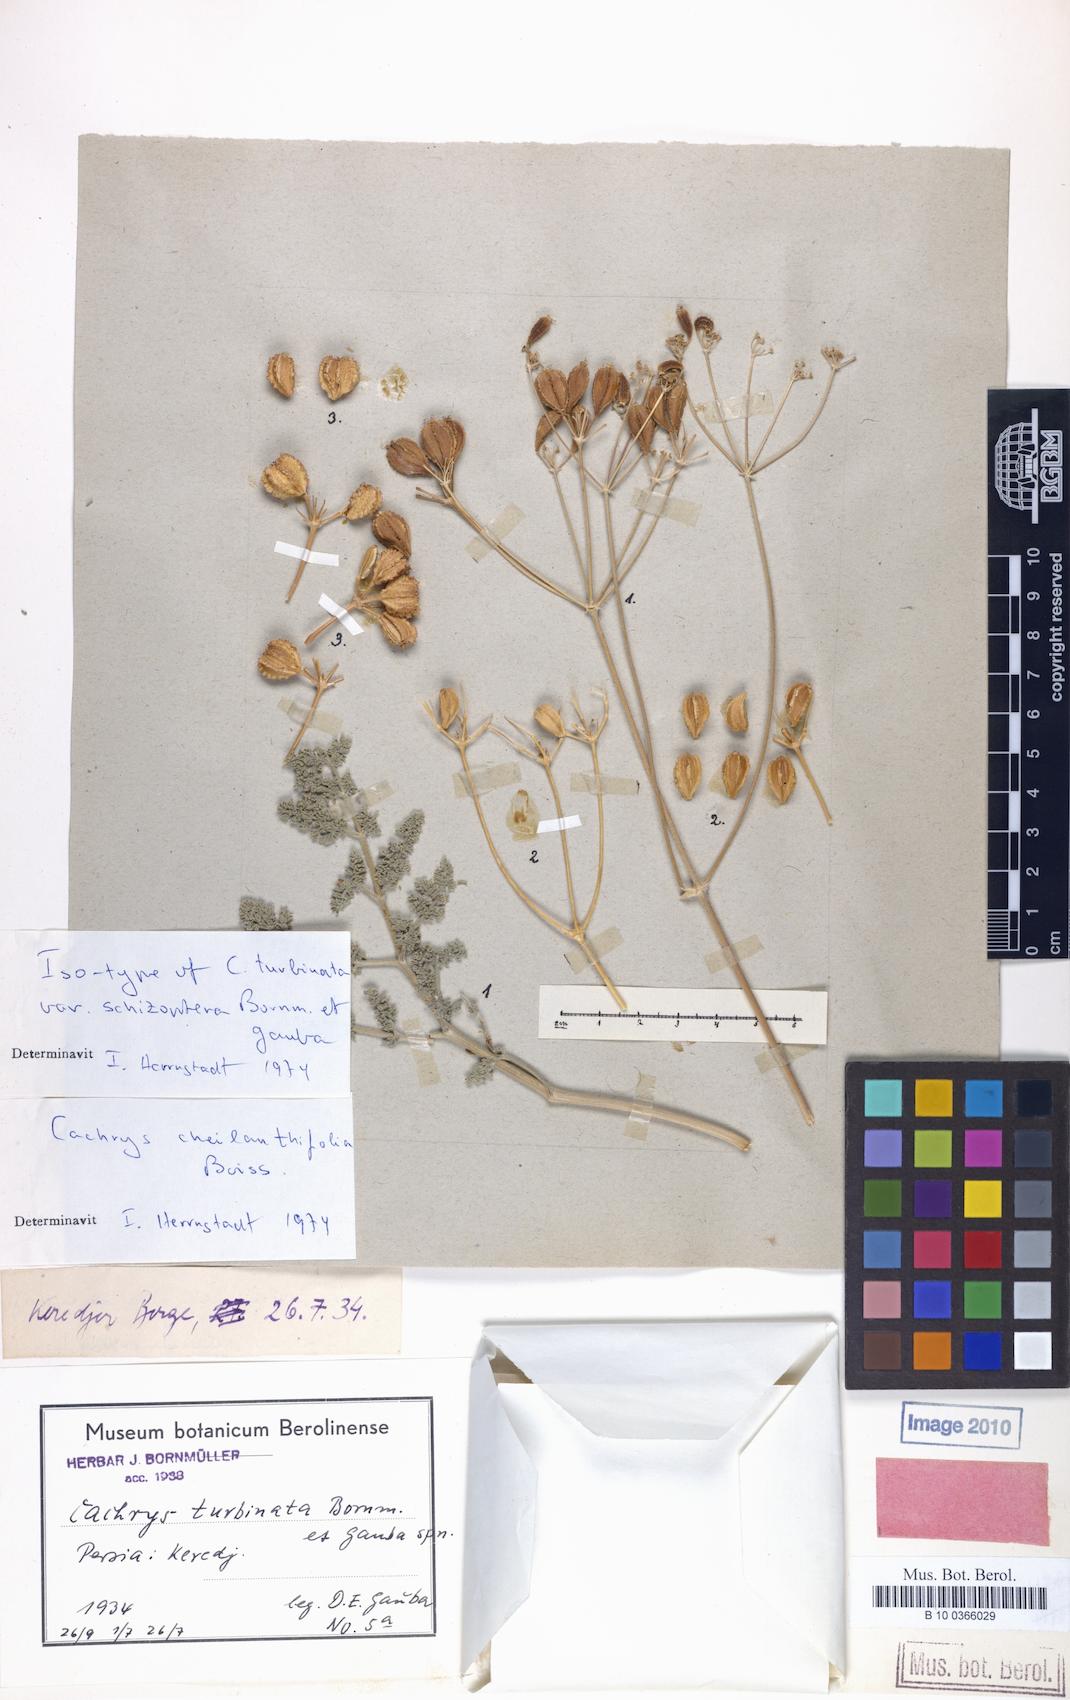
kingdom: Plantae
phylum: Tracheophyta
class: Magnoliopsida
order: Apiales
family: Apiaceae
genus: Prangos
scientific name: Prangos cheilanthifolia
